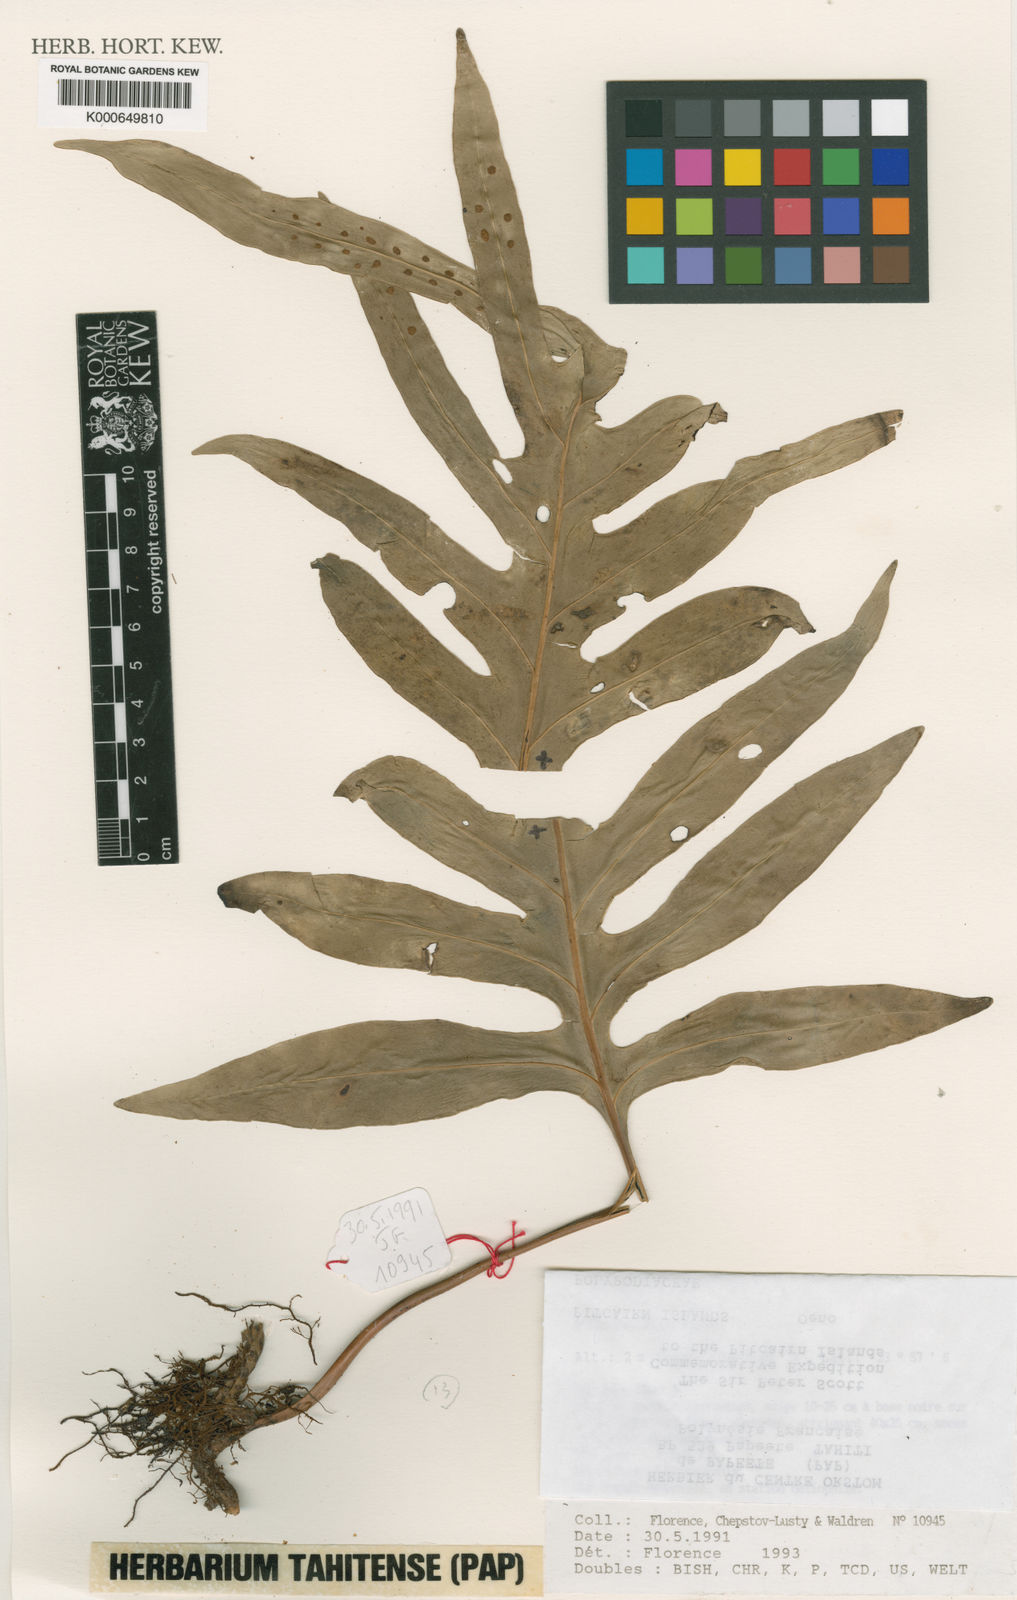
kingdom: Plantae
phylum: Tracheophyta
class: Polypodiopsida
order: Polypodiales
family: Polypodiaceae
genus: Microsorum
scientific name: Microsorum grossum
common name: Musk fern
